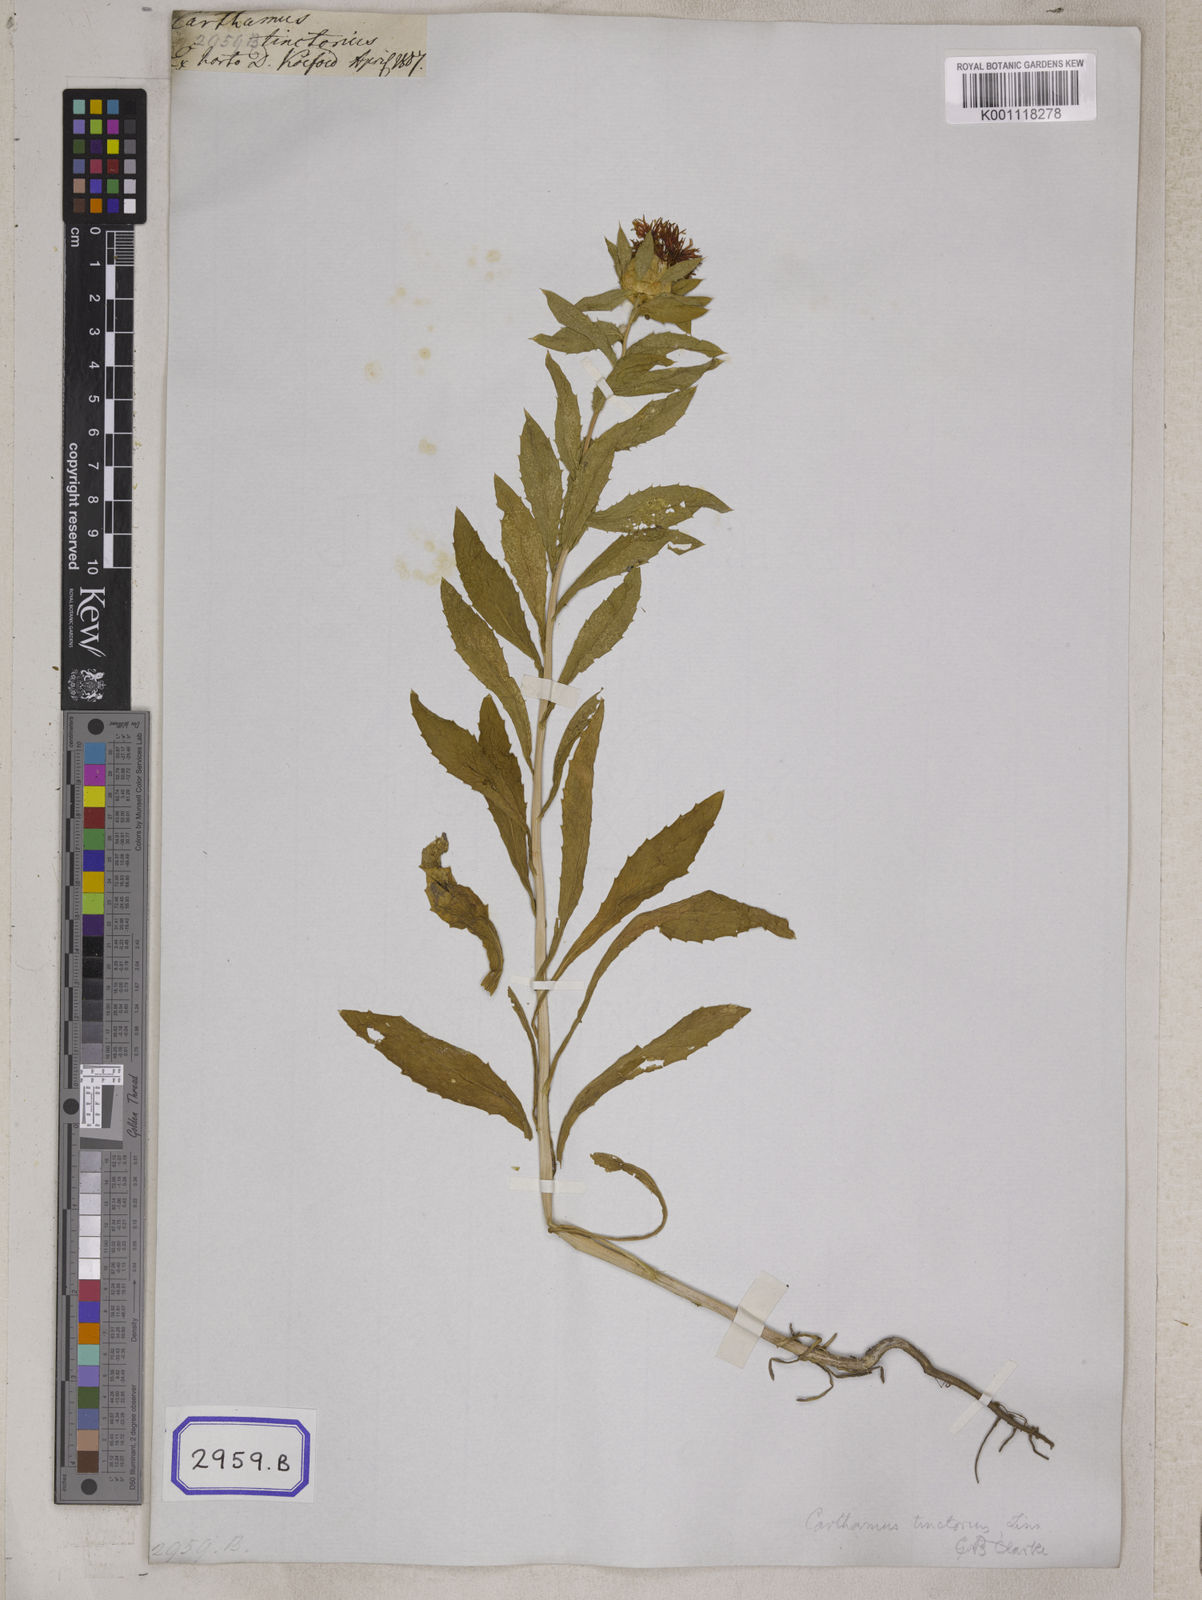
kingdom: Plantae
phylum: Tracheophyta
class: Magnoliopsida
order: Asterales
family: Asteraceae
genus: Carthamus
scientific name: Carthamus tinctorius
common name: Safflower
